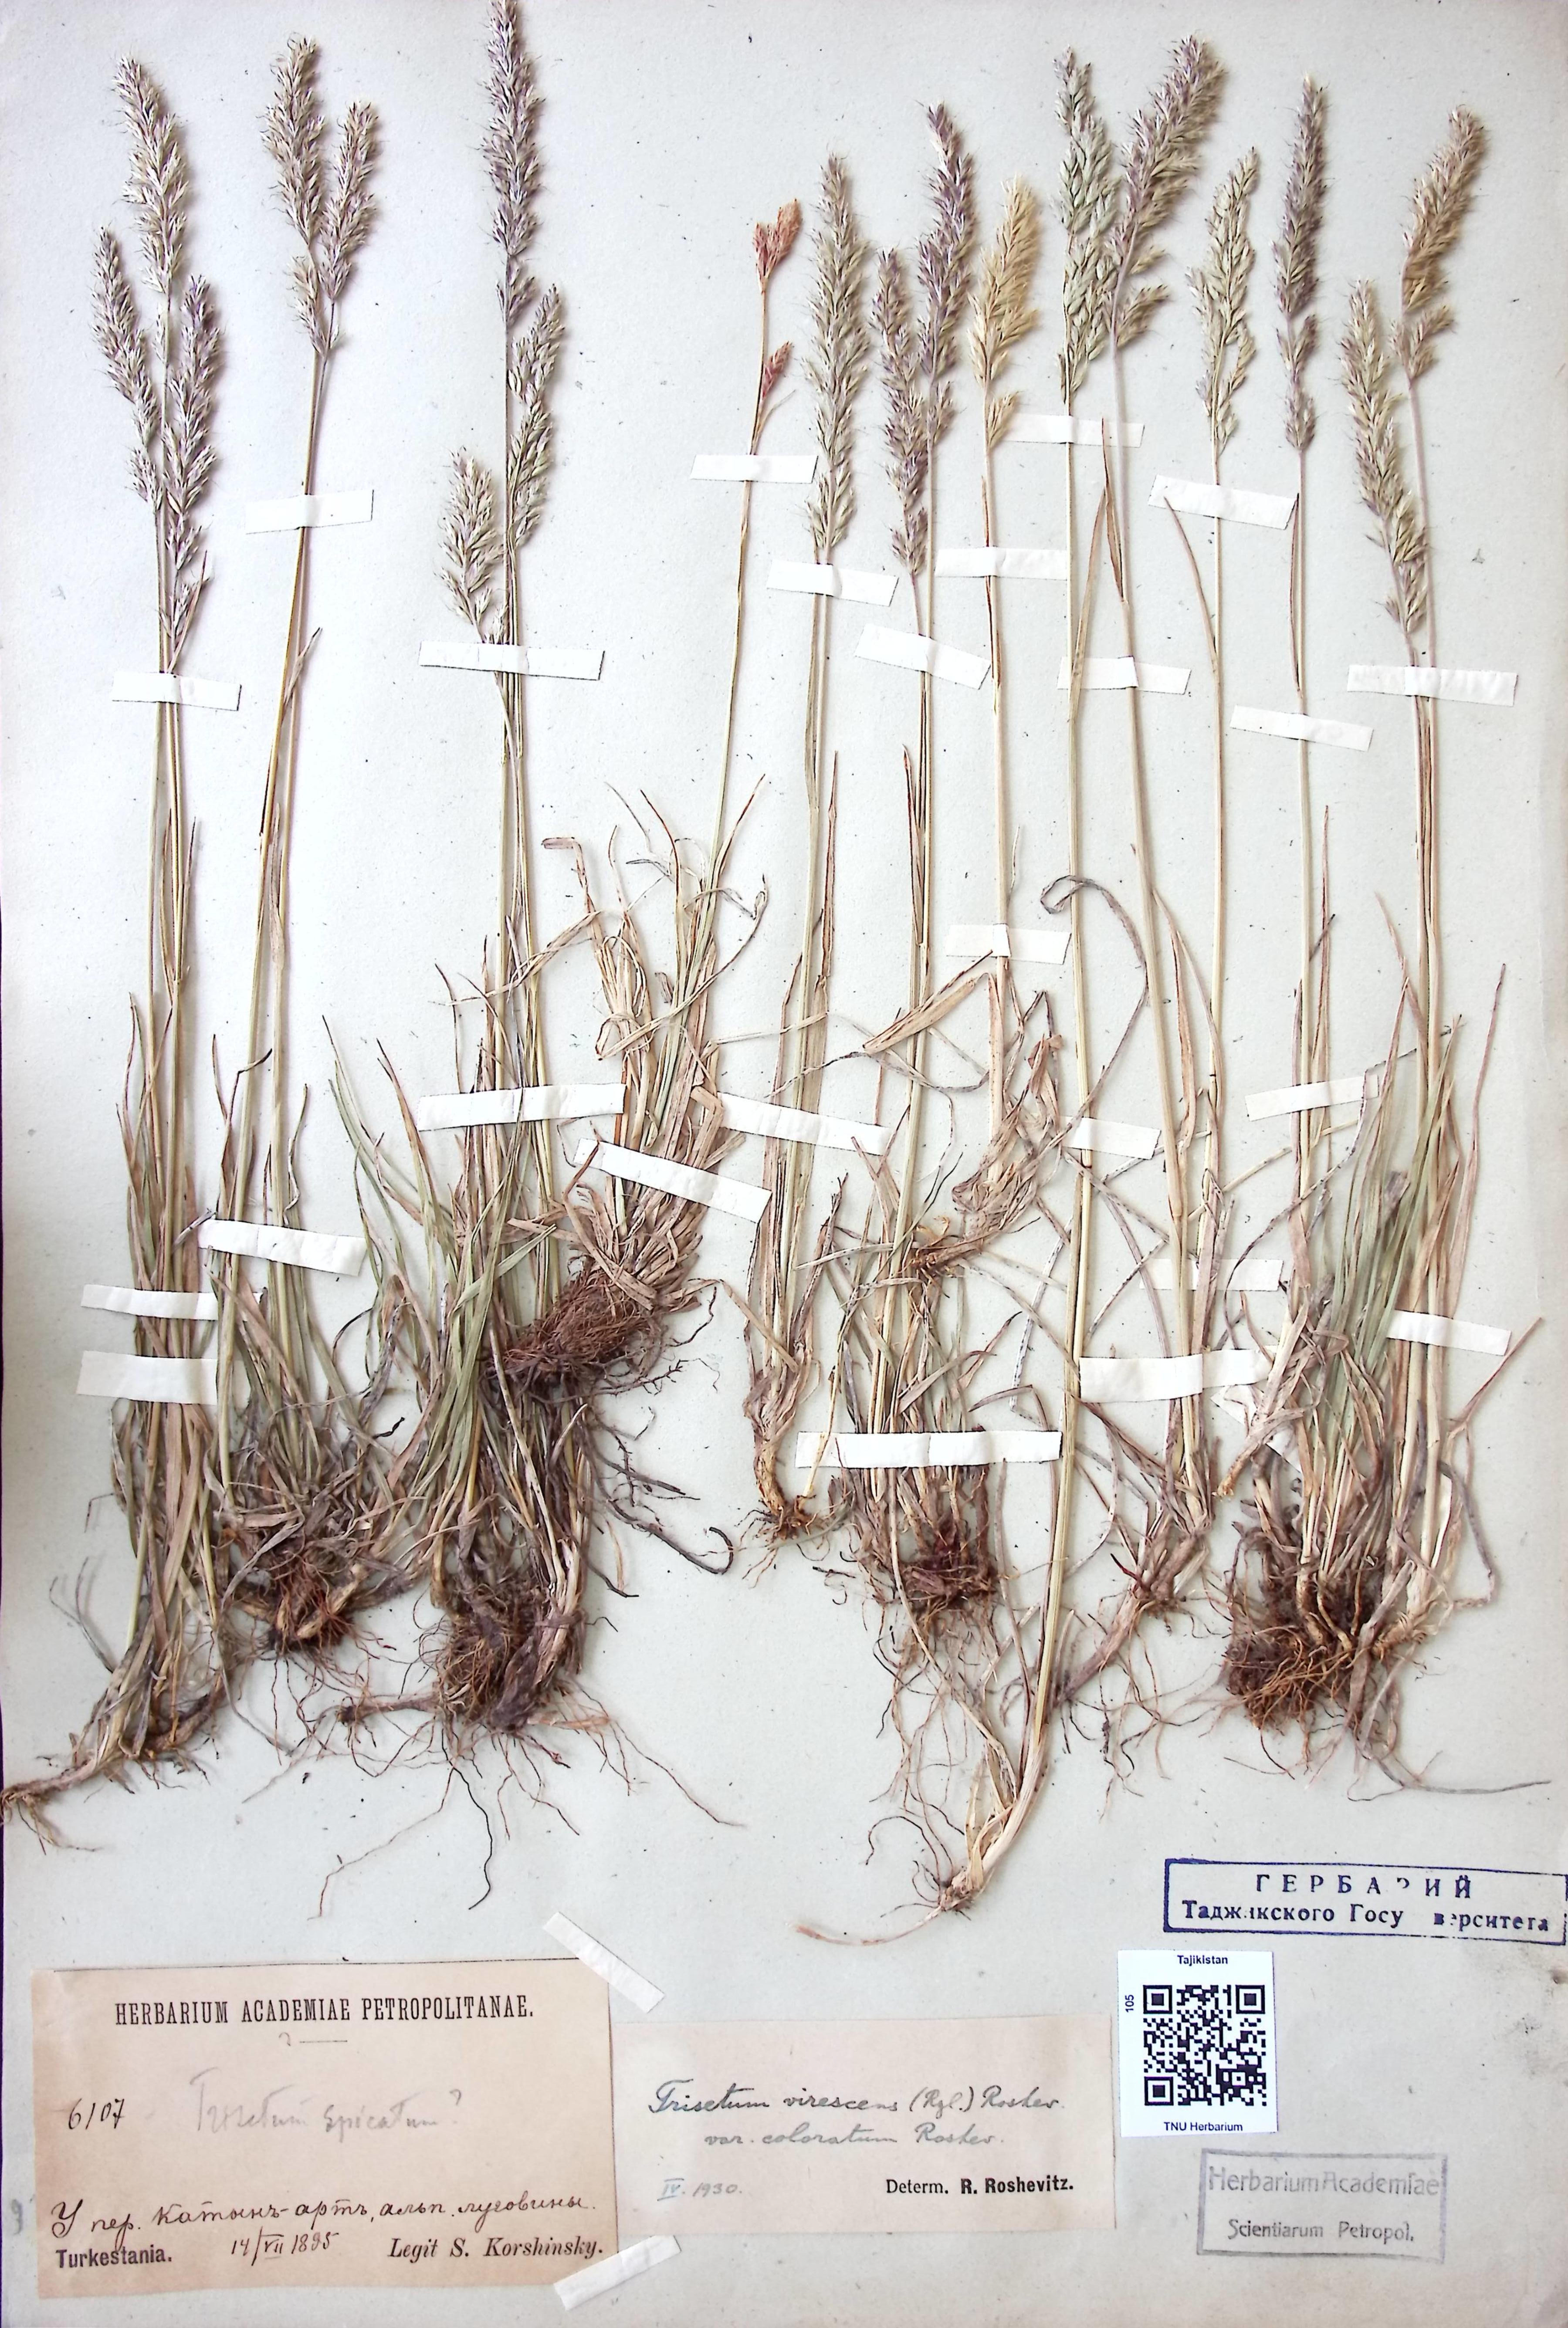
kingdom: Plantae
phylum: Tracheophyta
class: Liliopsida
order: Poales
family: Poaceae
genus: Trisetum
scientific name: Trisetum virescens
